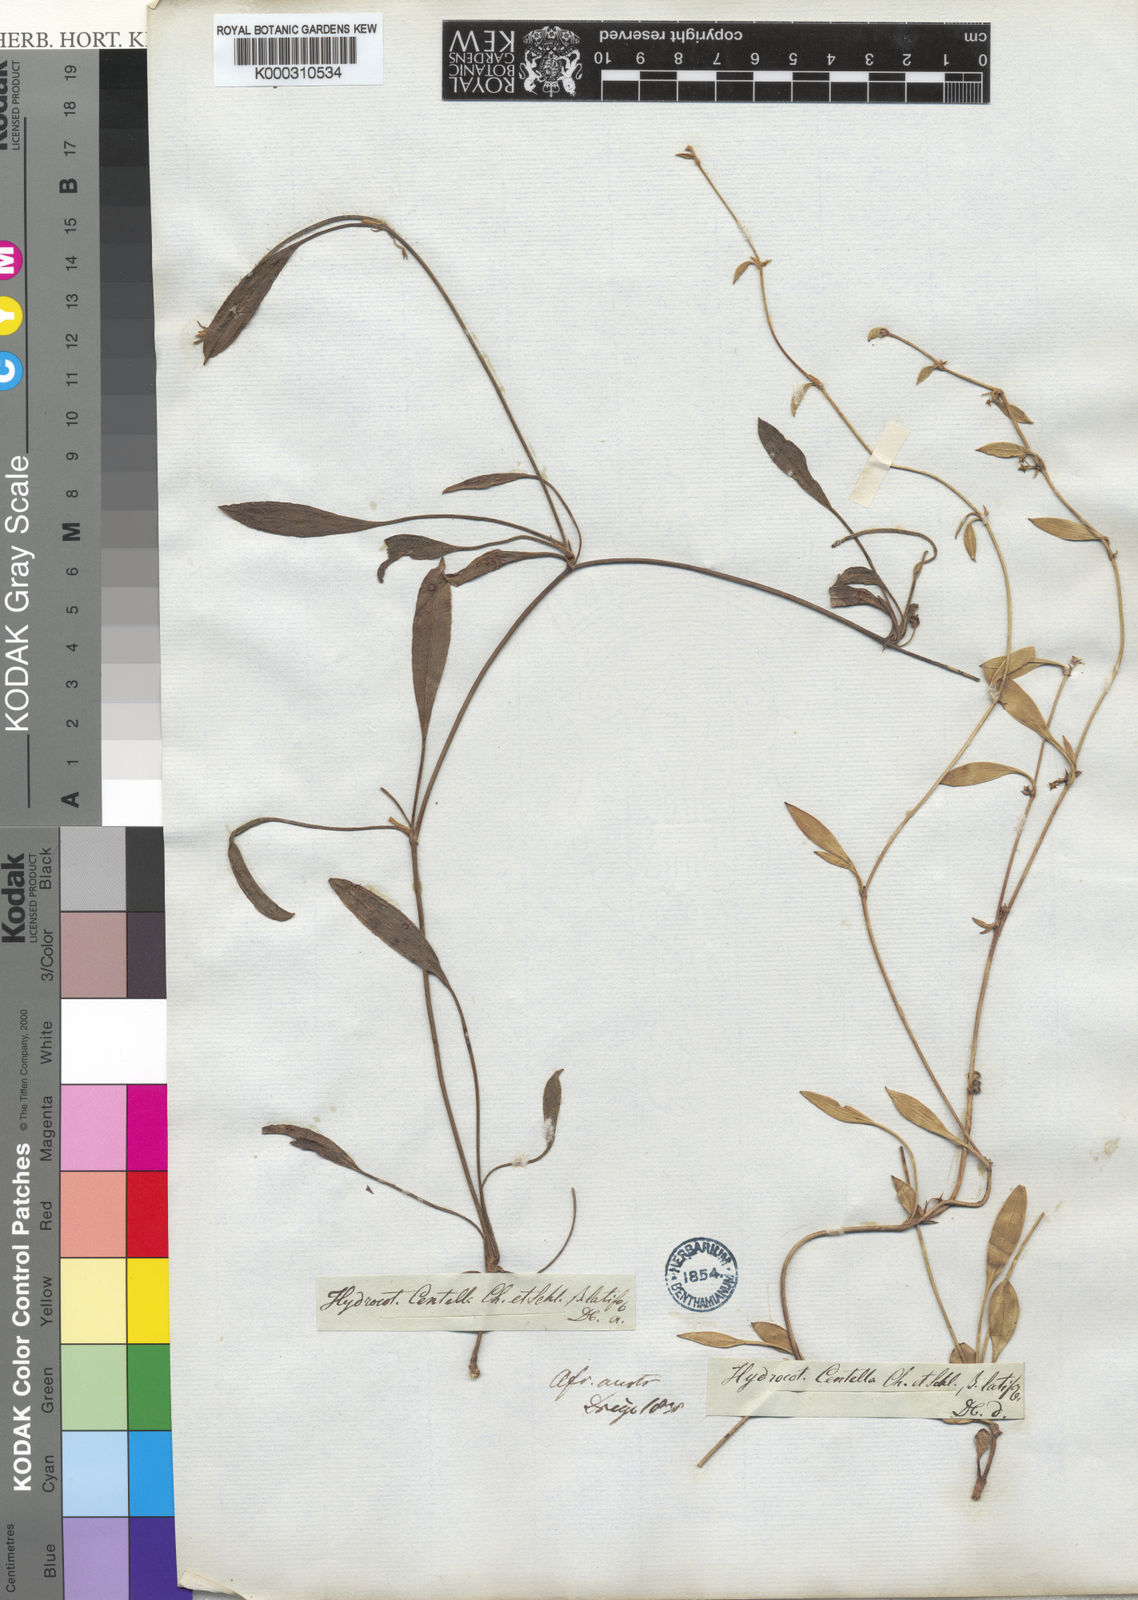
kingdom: Plantae
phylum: Tracheophyta
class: Magnoliopsida
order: Apiales
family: Apiaceae
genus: Centella
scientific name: Centella glabrata
